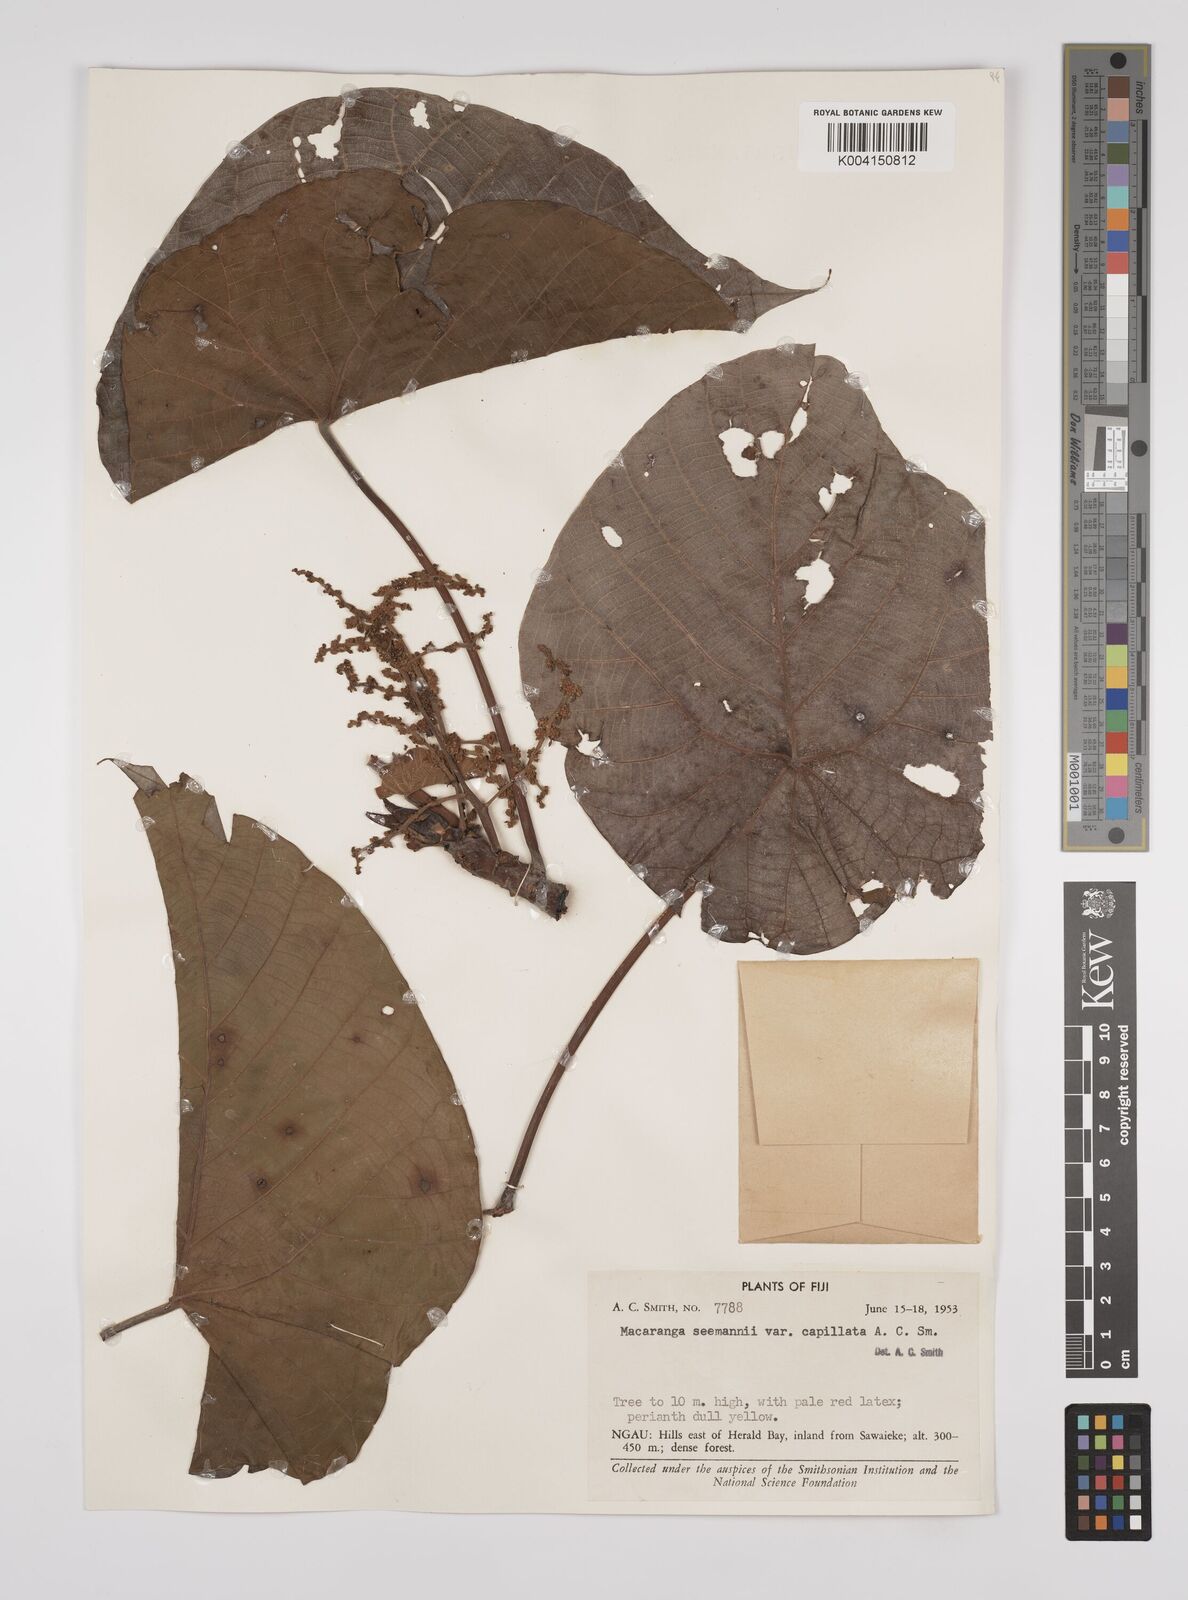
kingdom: Plantae
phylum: Tracheophyta
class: Magnoliopsida
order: Malpighiales
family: Euphorbiaceae
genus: Macaranga
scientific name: Macaranga seemannii
